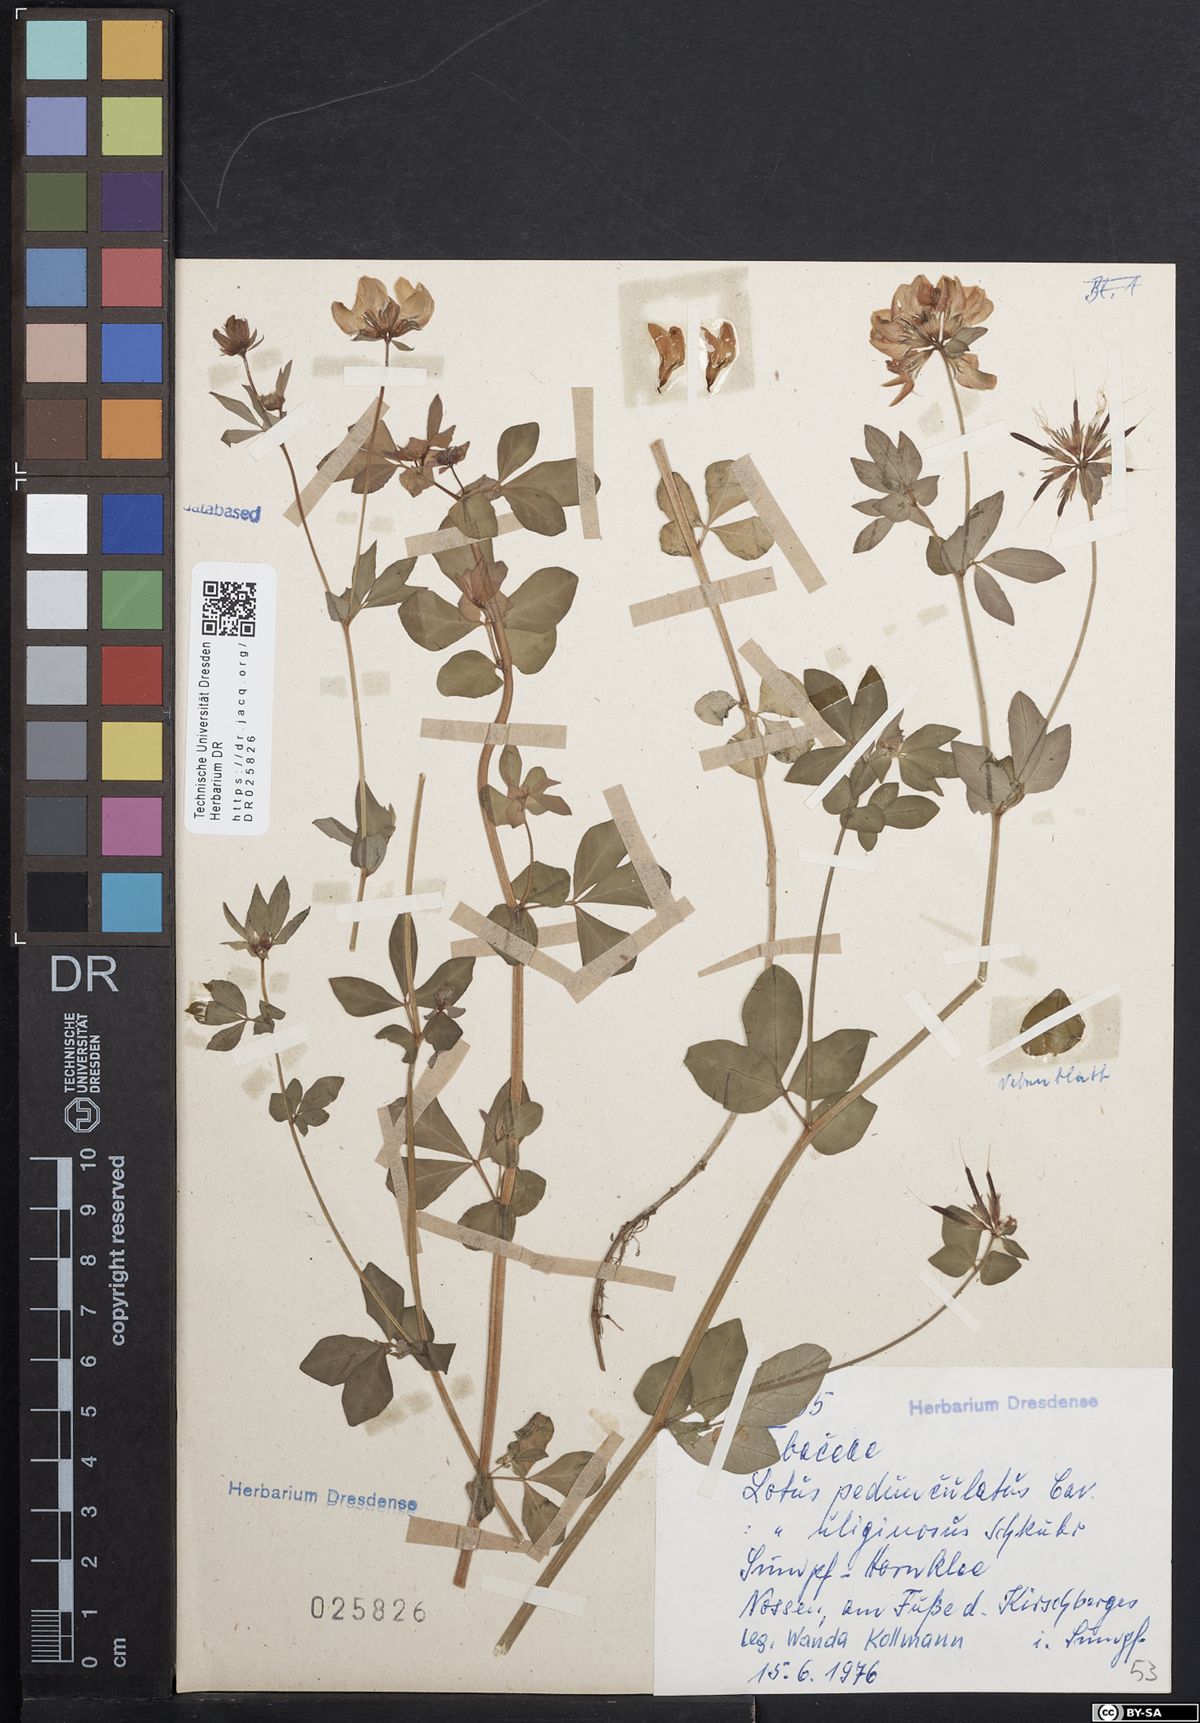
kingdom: Plantae
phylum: Tracheophyta
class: Magnoliopsida
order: Fabales
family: Fabaceae
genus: Lotus
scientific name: Lotus pedunculatus
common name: Greater birdsfoot-trefoil
